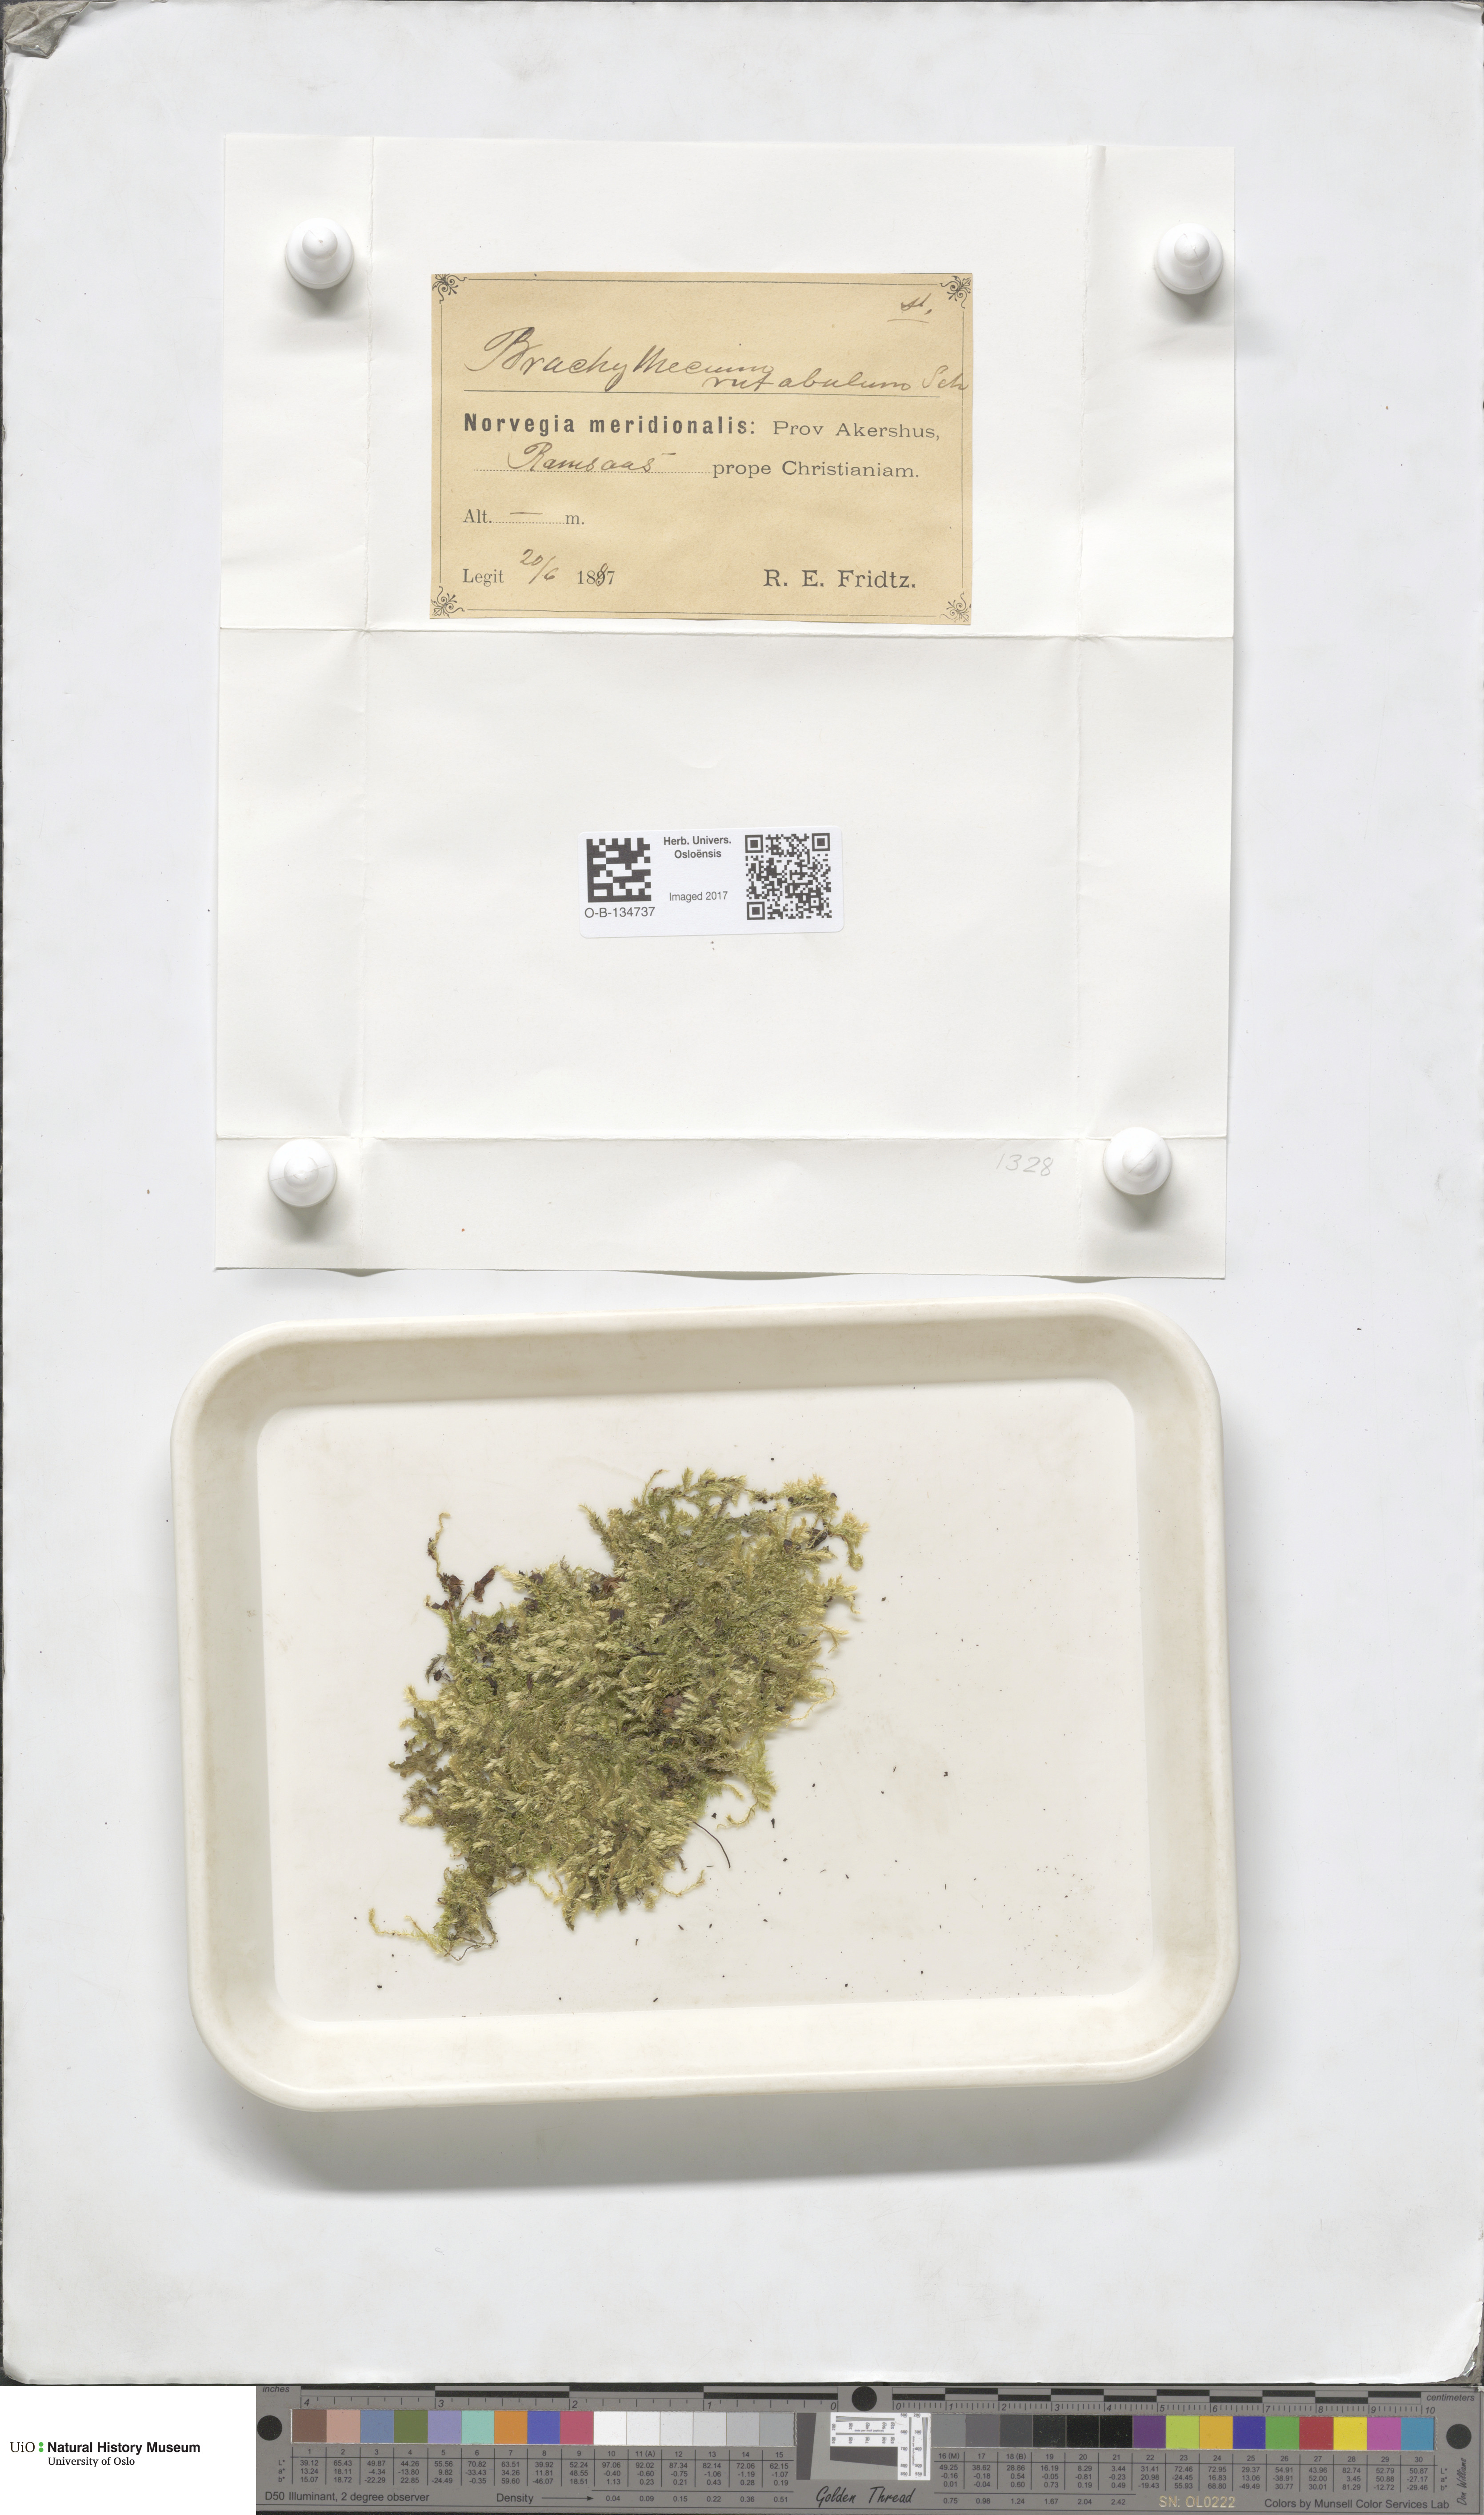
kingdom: Plantae
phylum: Bryophyta
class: Bryopsida
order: Hypnales
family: Brachytheciaceae
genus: Brachythecium
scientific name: Brachythecium rutabulum
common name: Rough-stalked feather-moss
